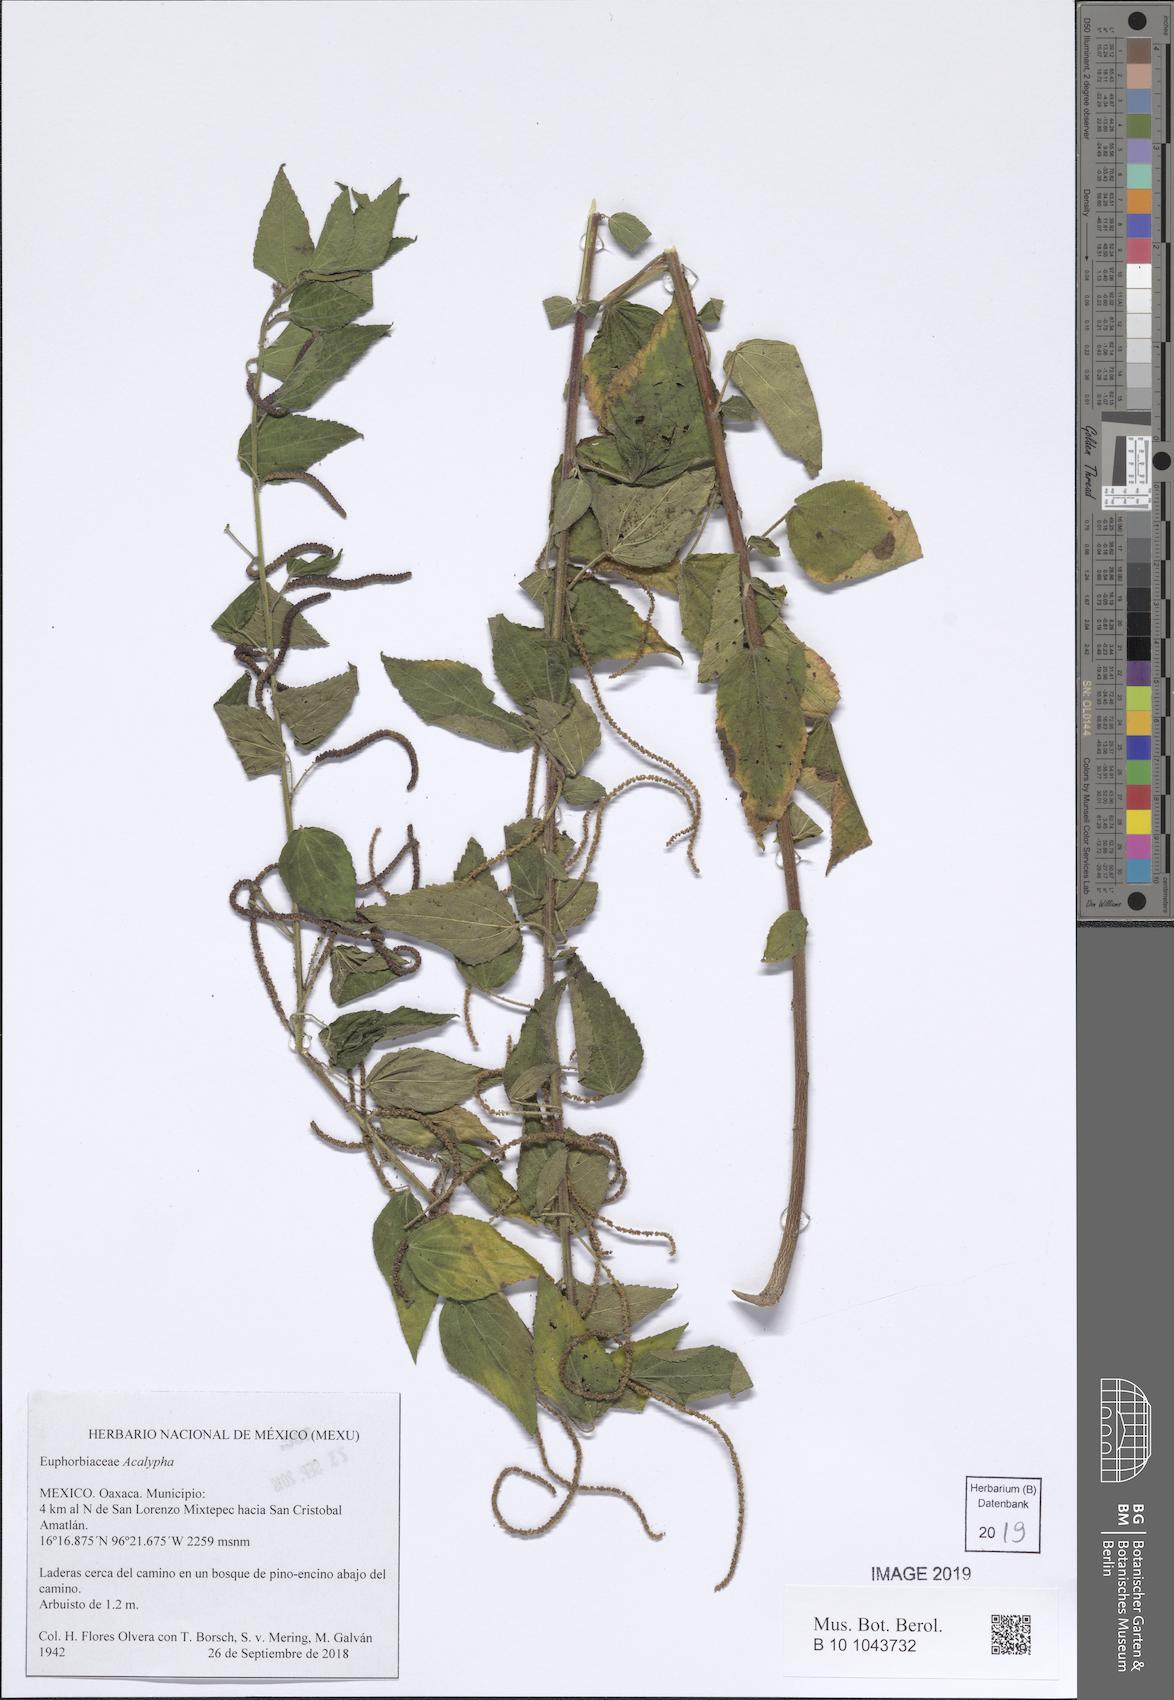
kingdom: Plantae
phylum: Tracheophyta
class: Magnoliopsida
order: Malpighiales
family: Euphorbiaceae
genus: Acalypha
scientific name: Acalypha
